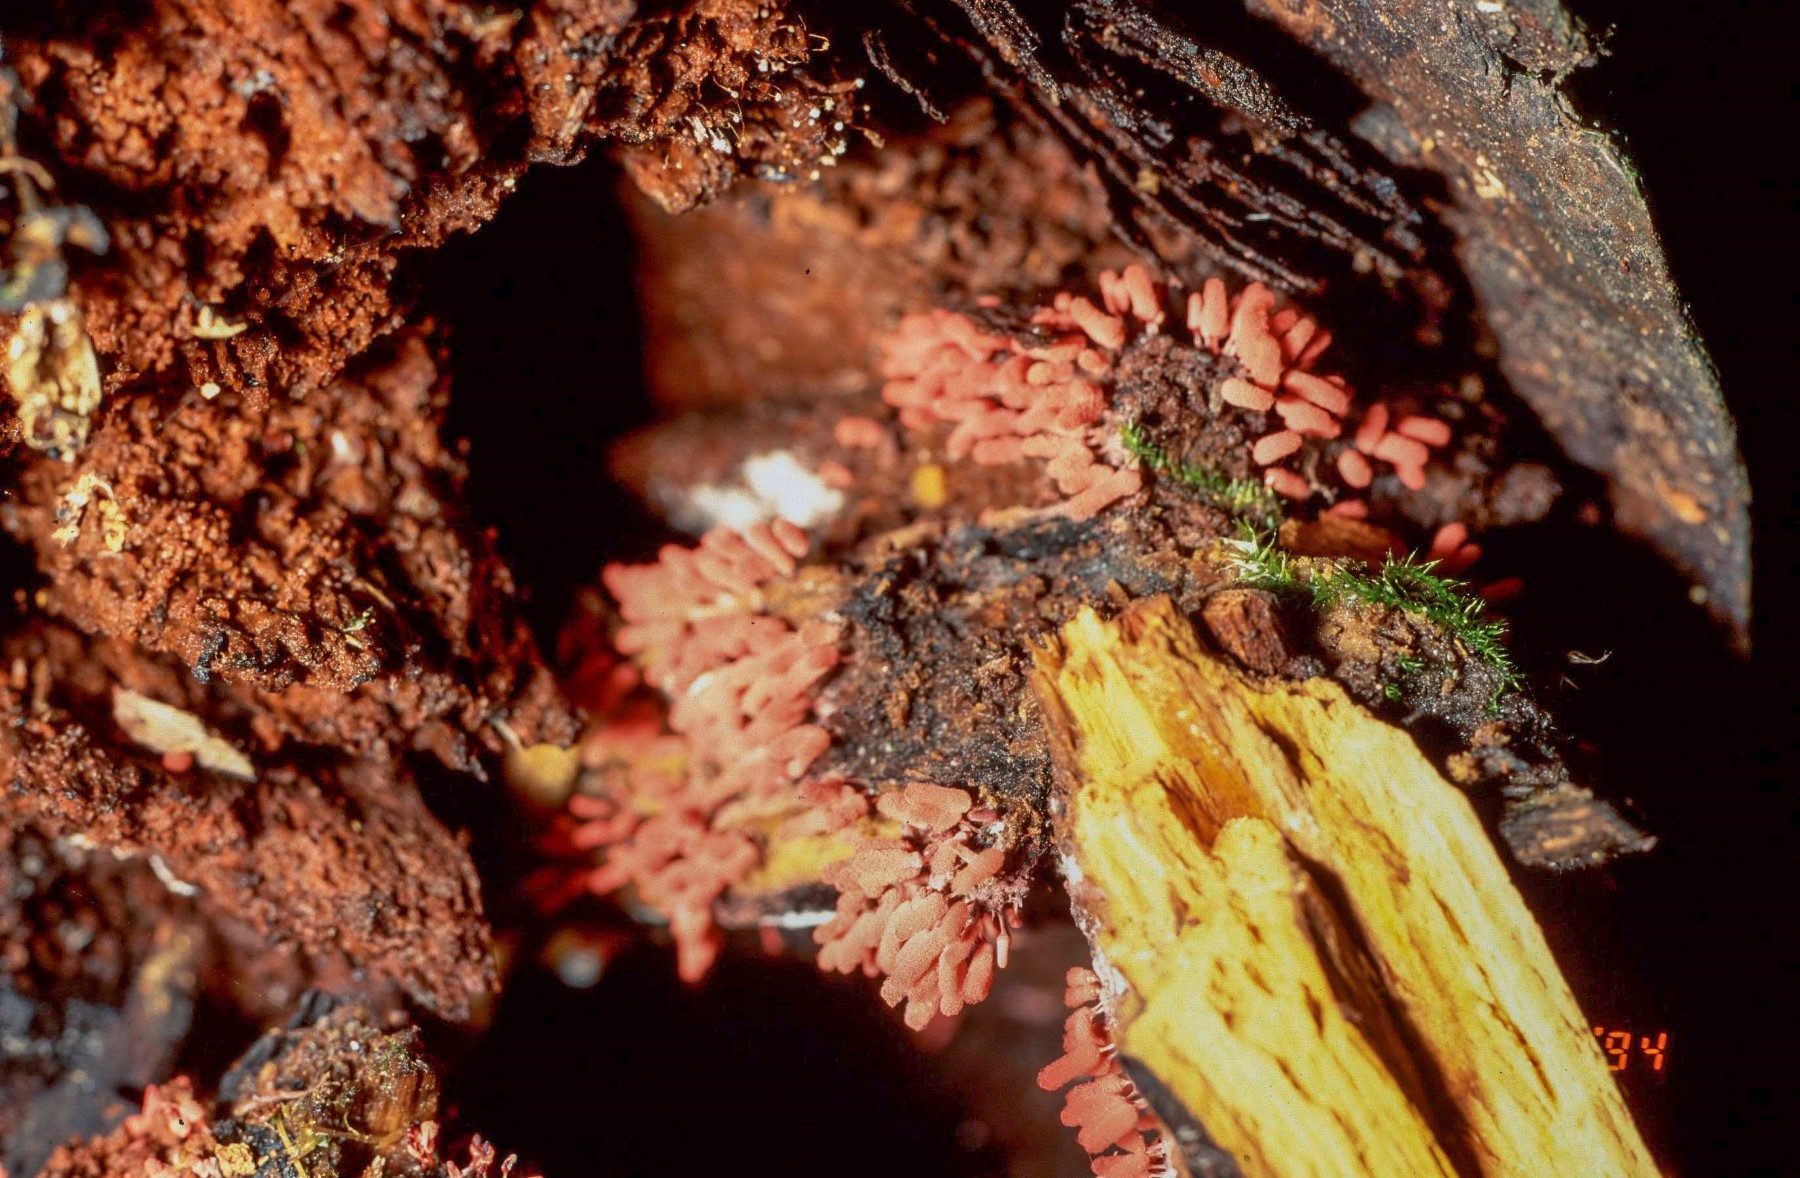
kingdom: Protozoa
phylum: Mycetozoa
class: Myxomycetes
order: Trichiales
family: Arcyriaceae
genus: Arcyria
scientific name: Arcyria denudata
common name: karminrød skålsvøb
